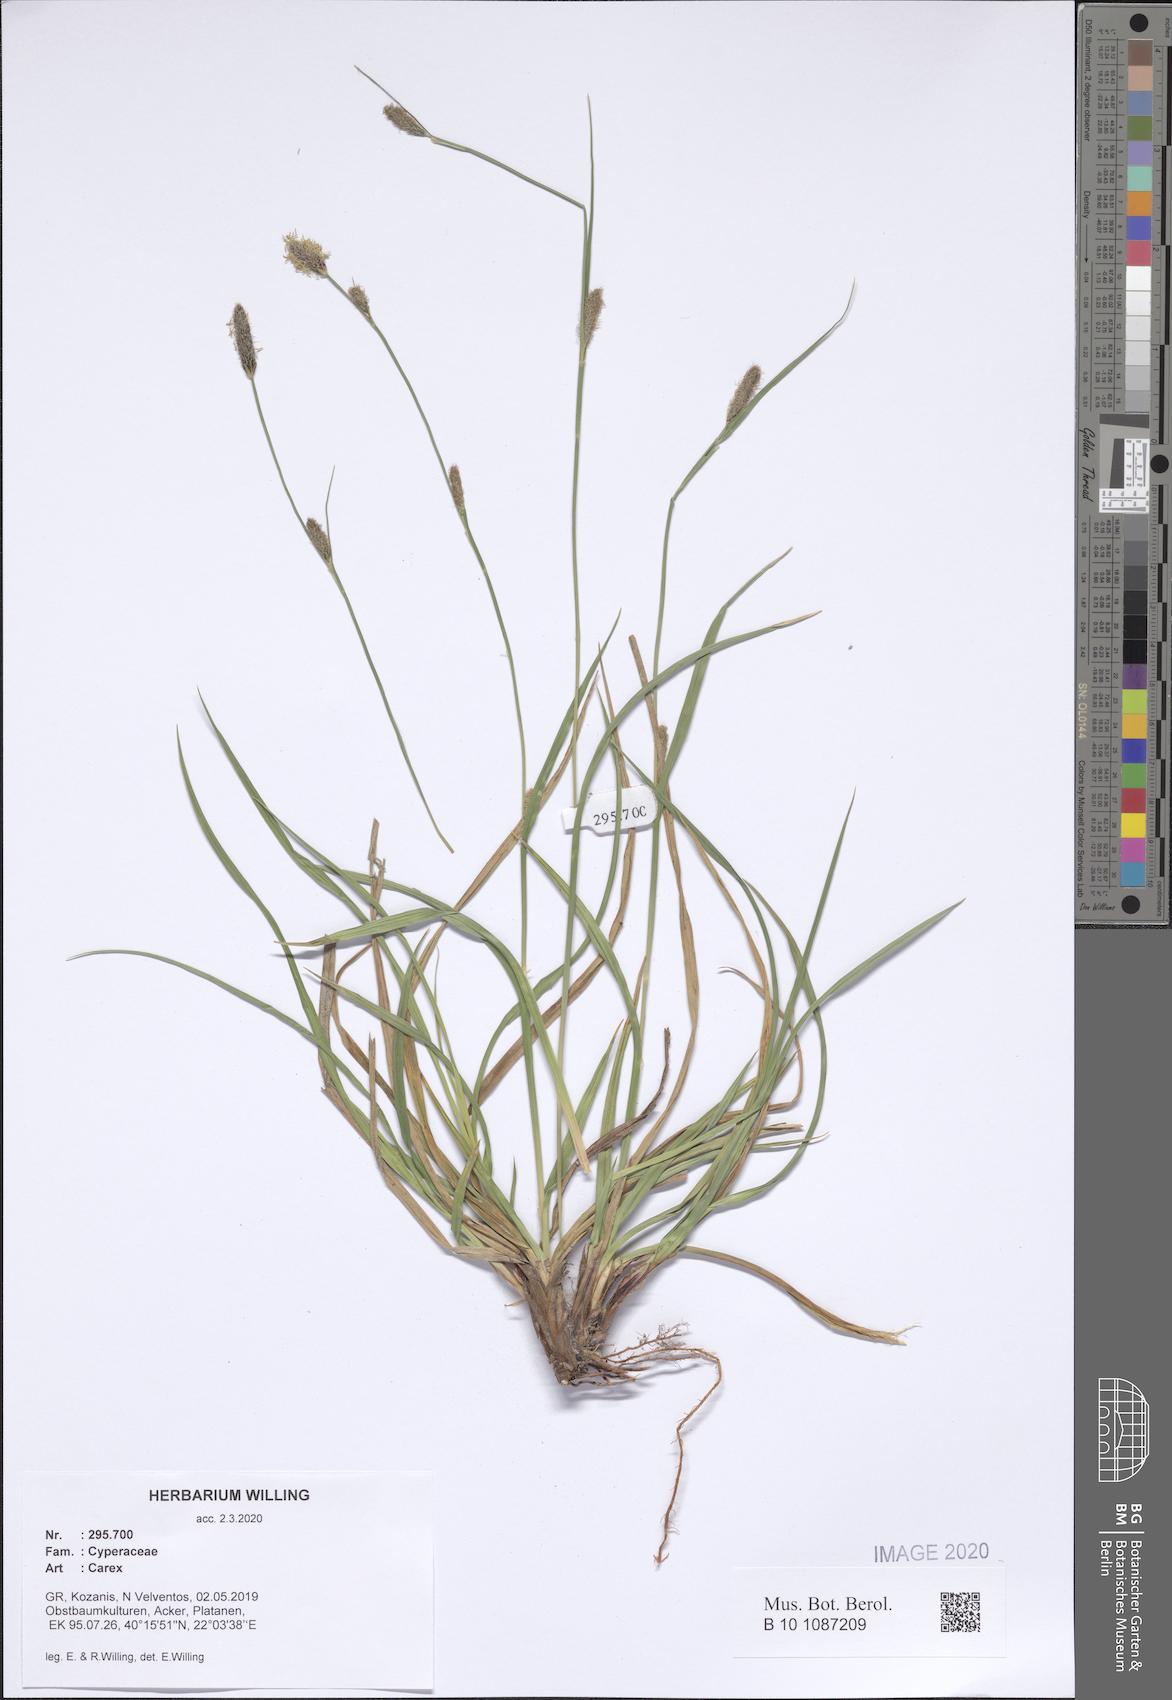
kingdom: Plantae
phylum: Tracheophyta
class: Liliopsida
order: Poales
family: Cyperaceae
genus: Carex
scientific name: Carex
